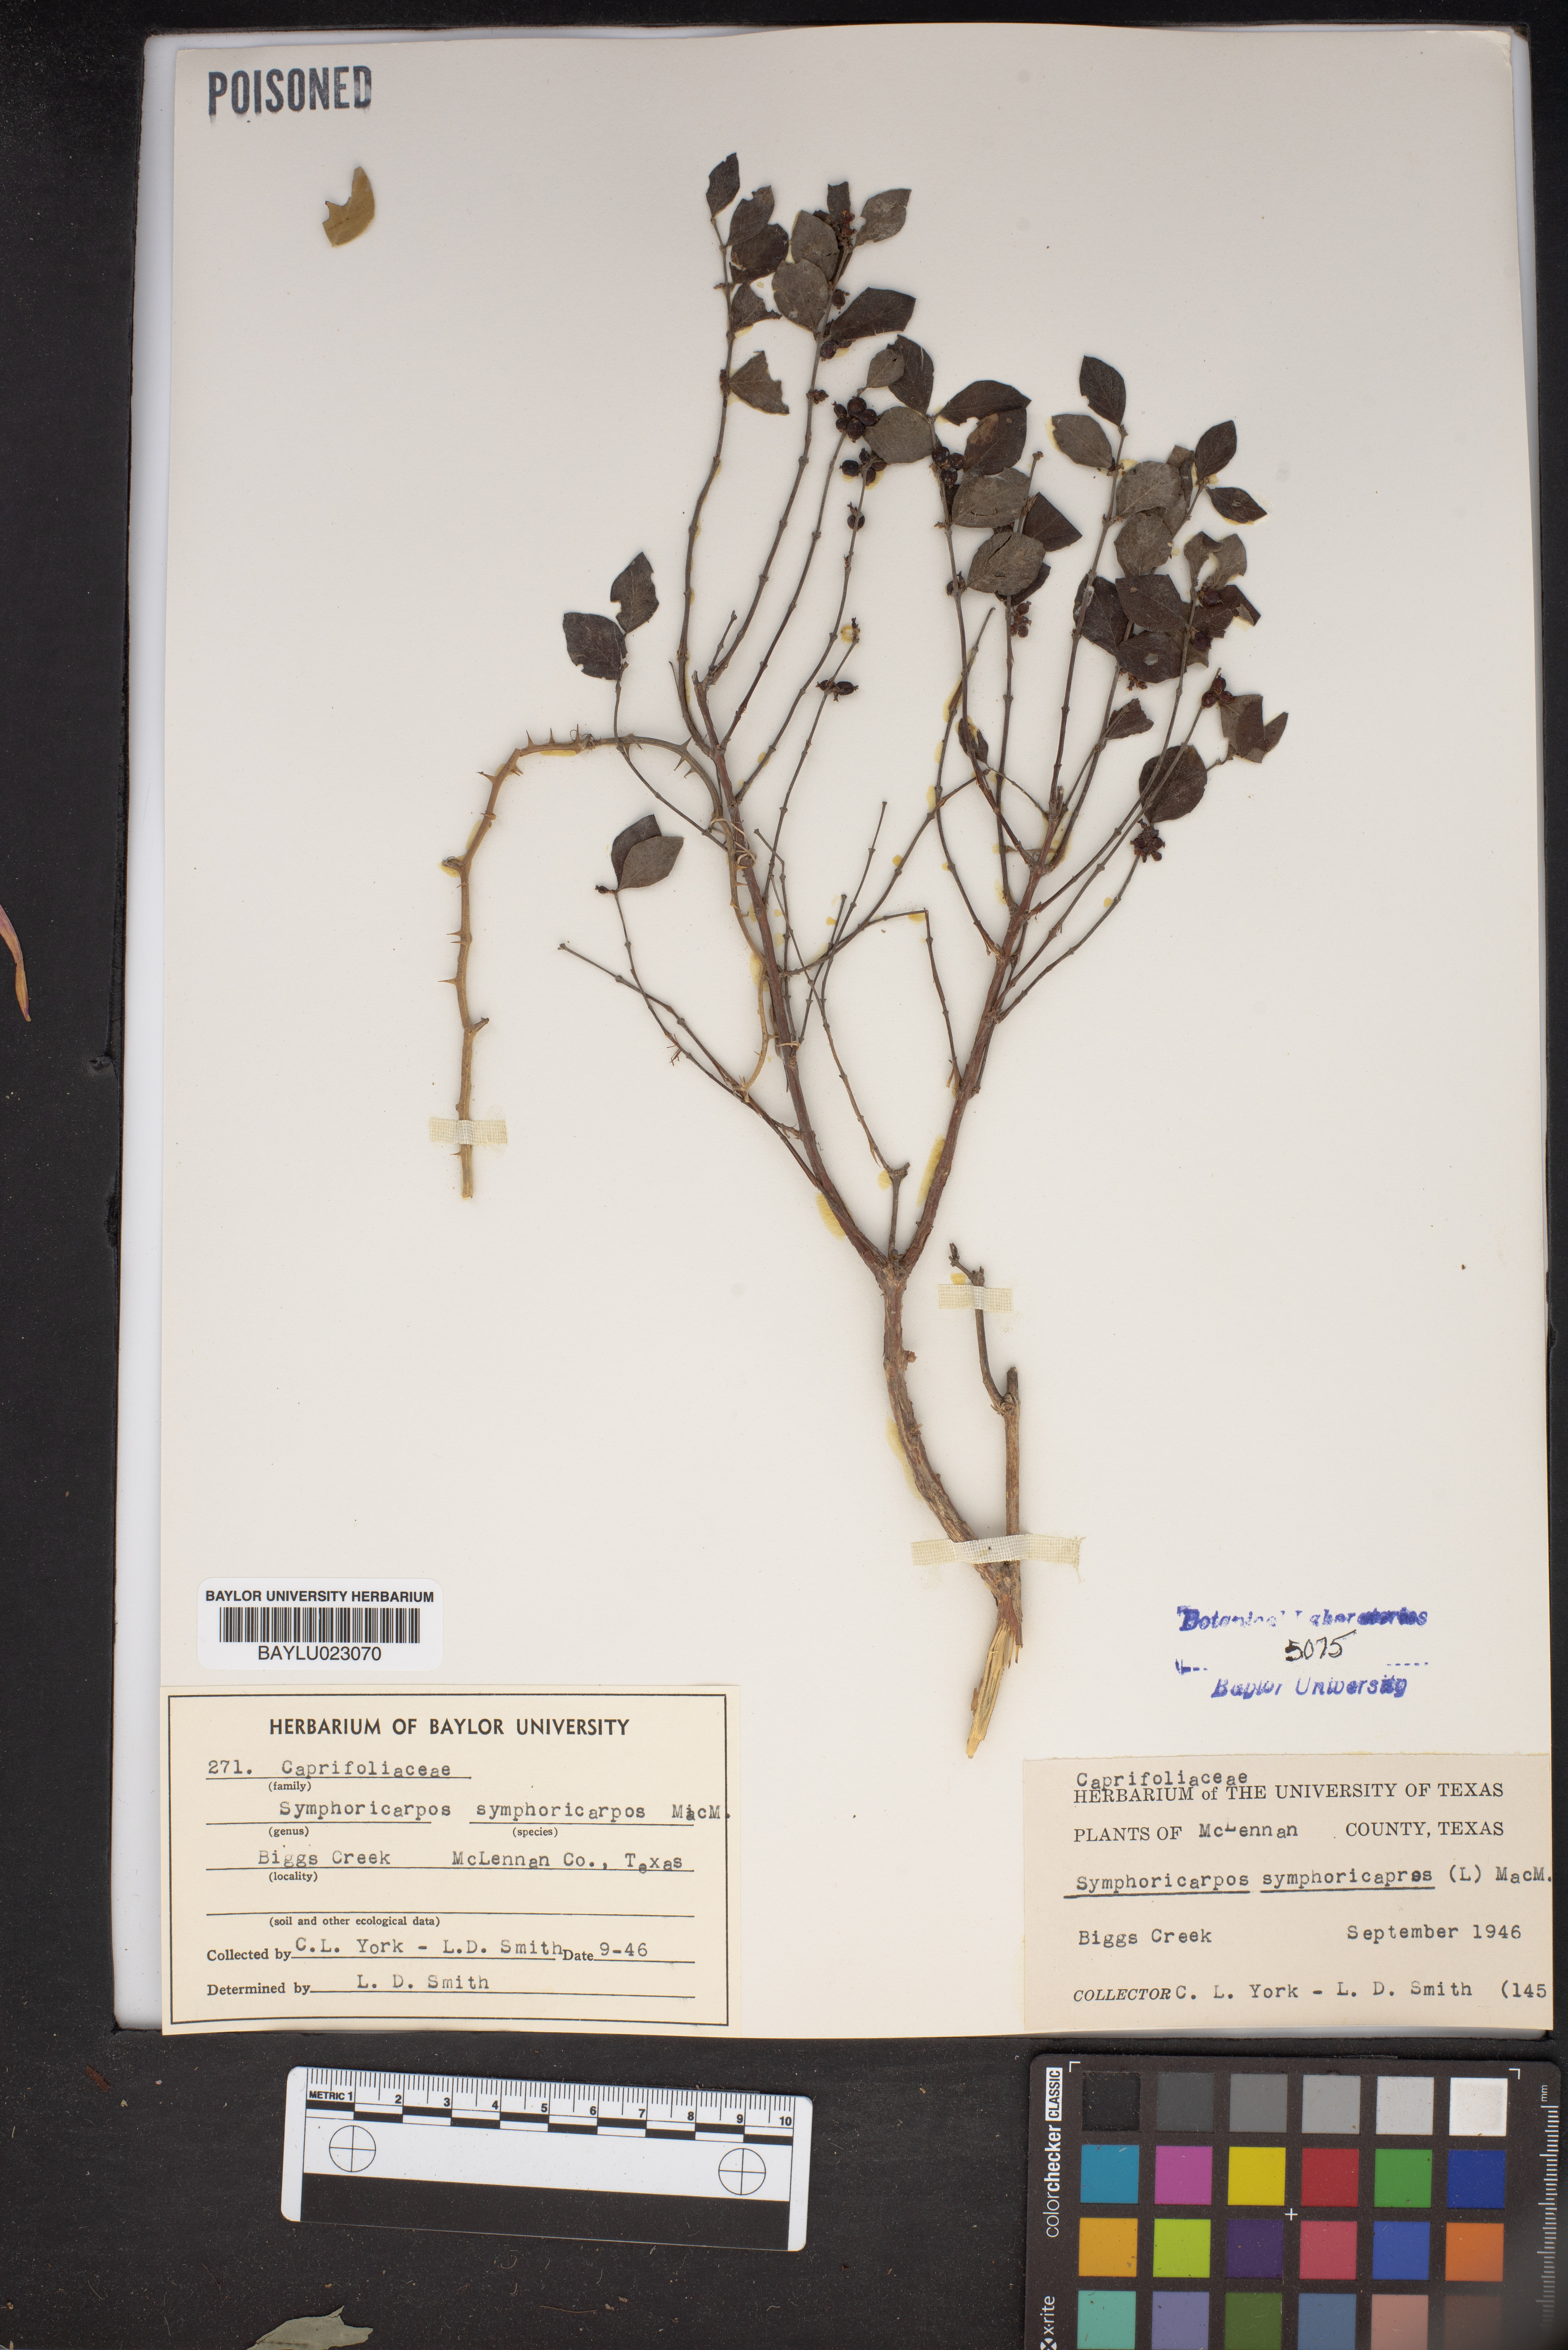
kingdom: Plantae
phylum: Tracheophyta
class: Magnoliopsida
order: Dipsacales
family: Caprifoliaceae
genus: Symphoricarpos
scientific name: Symphoricarpos orbiculatus
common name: Coralberry
